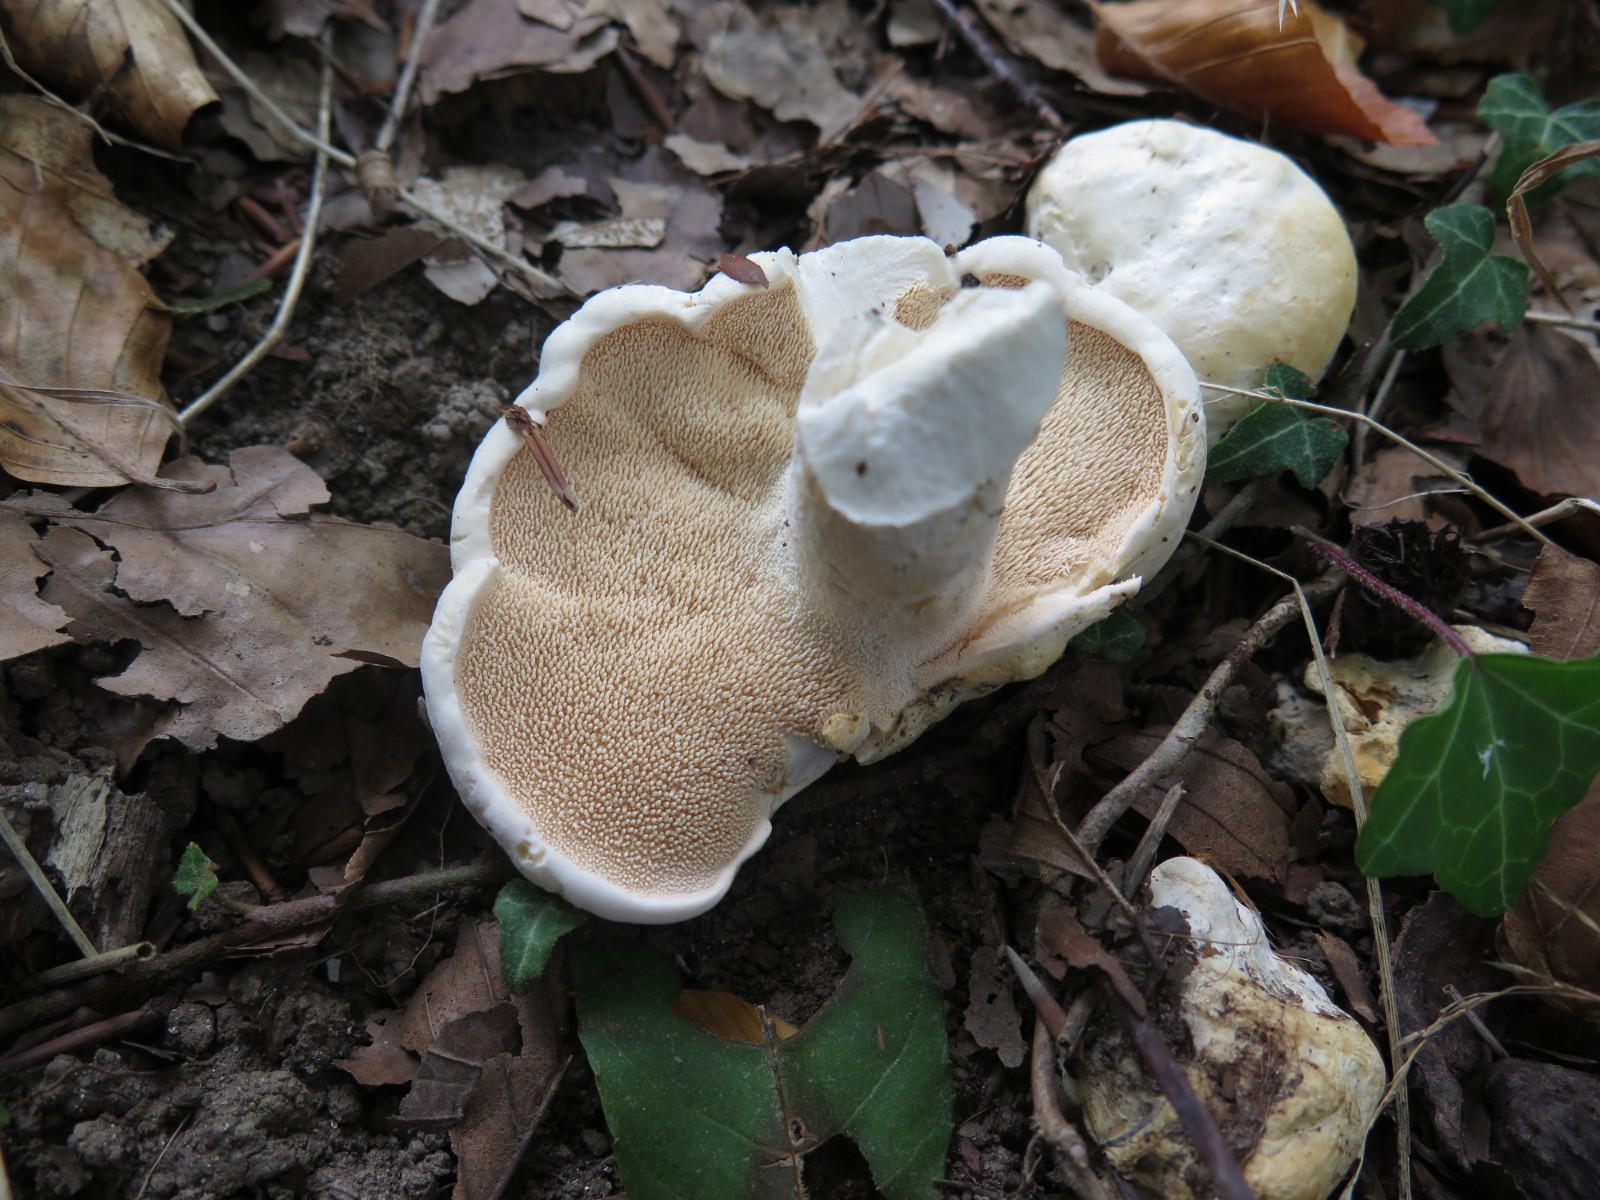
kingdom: Fungi
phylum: Basidiomycota
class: Agaricomycetes
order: Cantharellales
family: Hydnaceae
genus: Hydnum
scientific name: Hydnum repandum
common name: hvid pigsvamp
